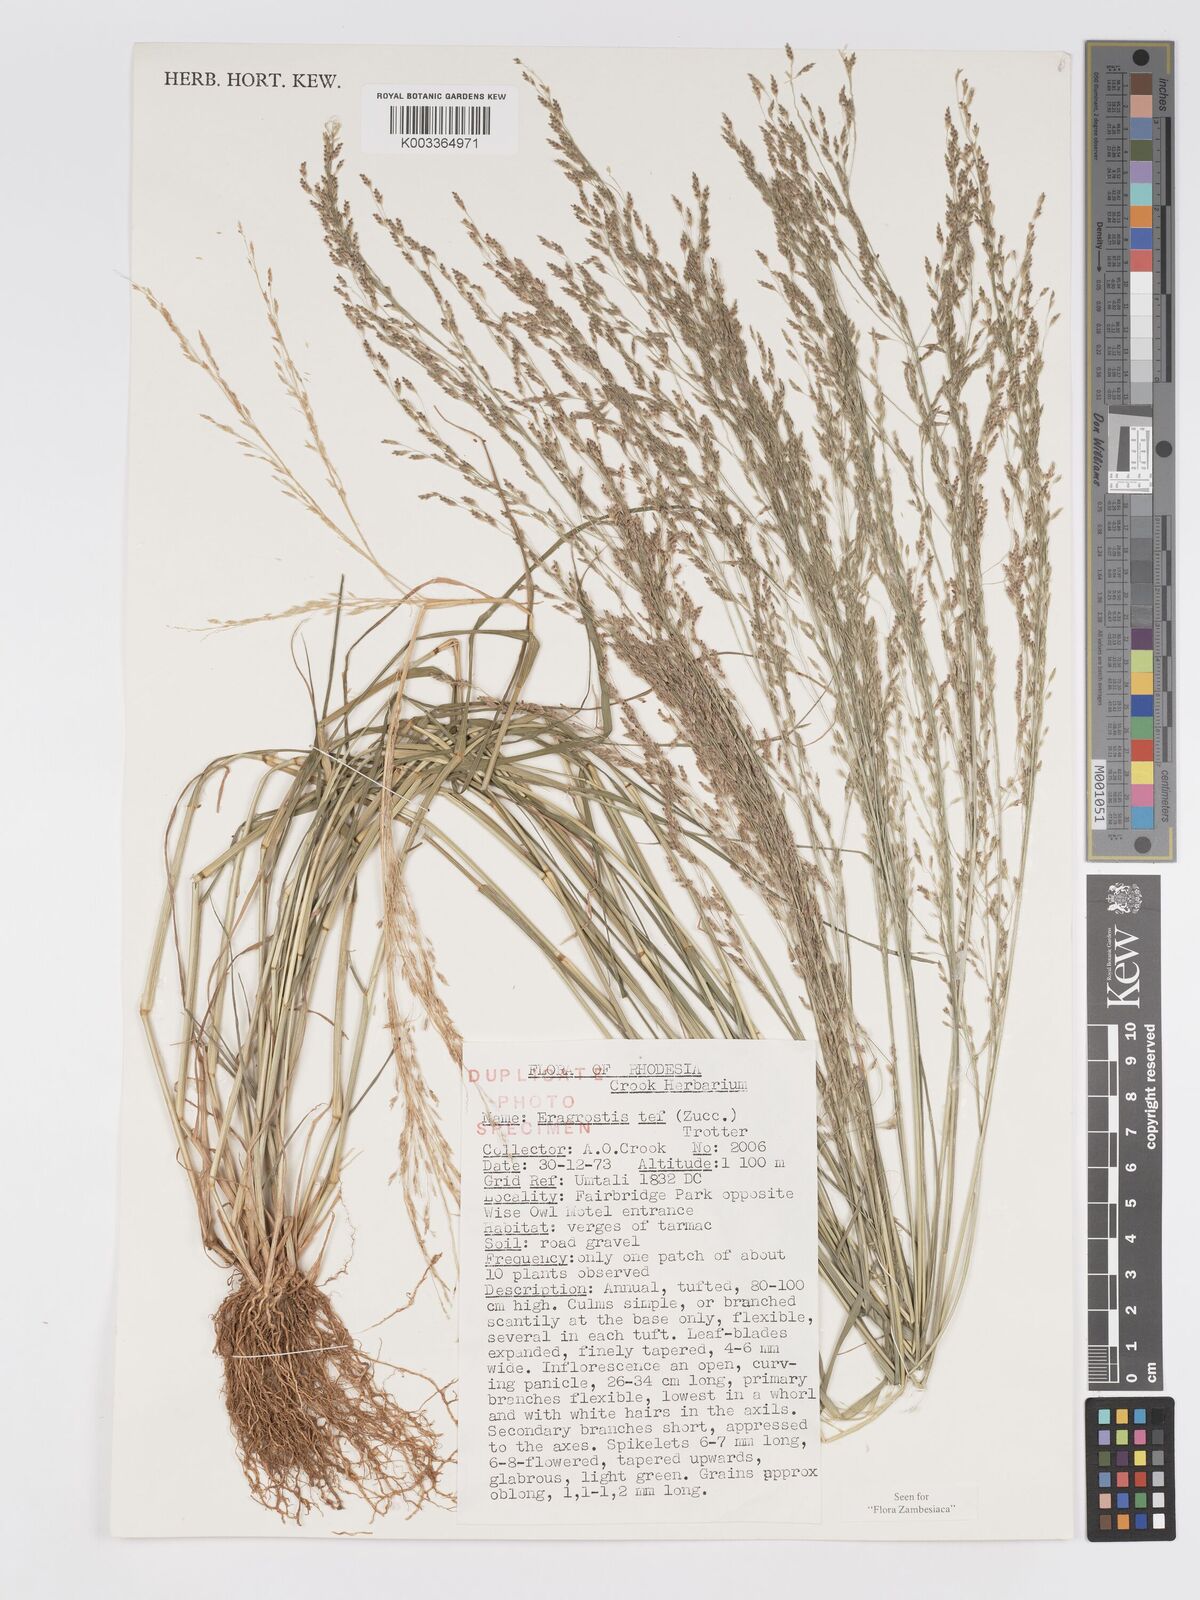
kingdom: Plantae
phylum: Tracheophyta
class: Liliopsida
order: Poales
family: Poaceae
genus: Eragrostis
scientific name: Eragrostis tef
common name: Teff
